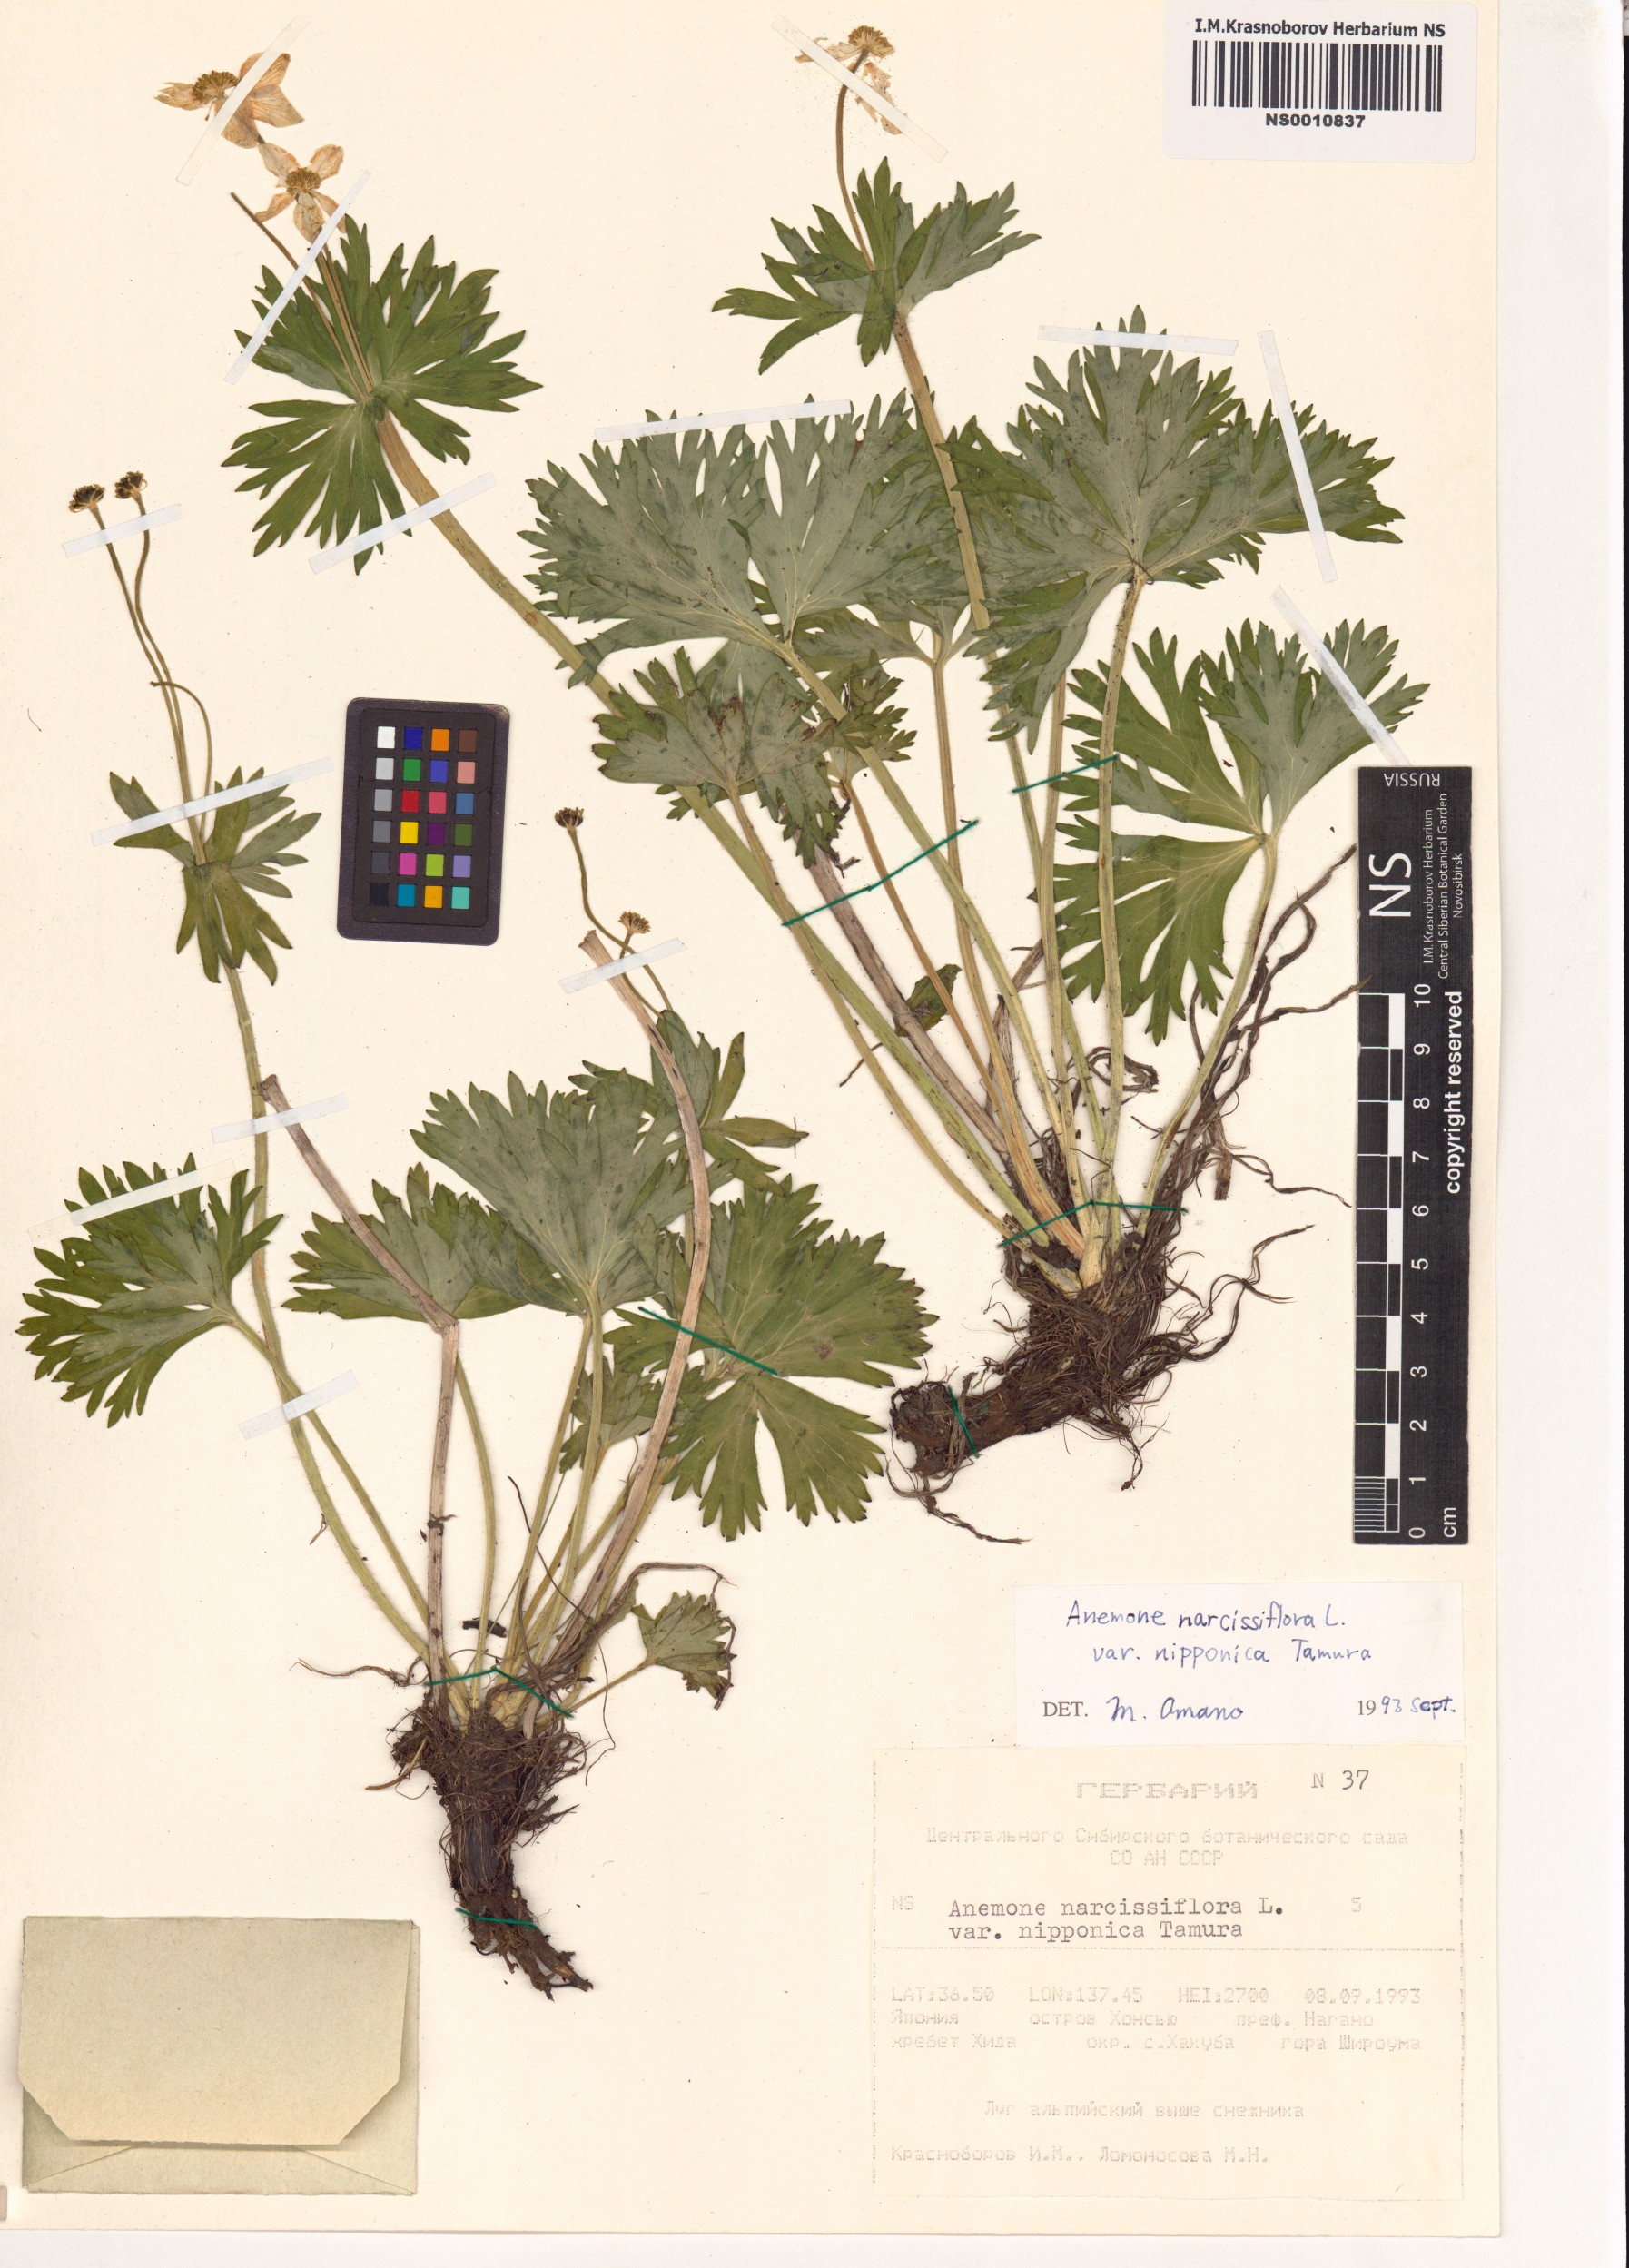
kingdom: Plantae
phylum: Tracheophyta
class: Magnoliopsida
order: Ranunculales
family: Ranunculaceae
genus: Anemonastrum
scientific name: Anemonastrum narcissiflorum
